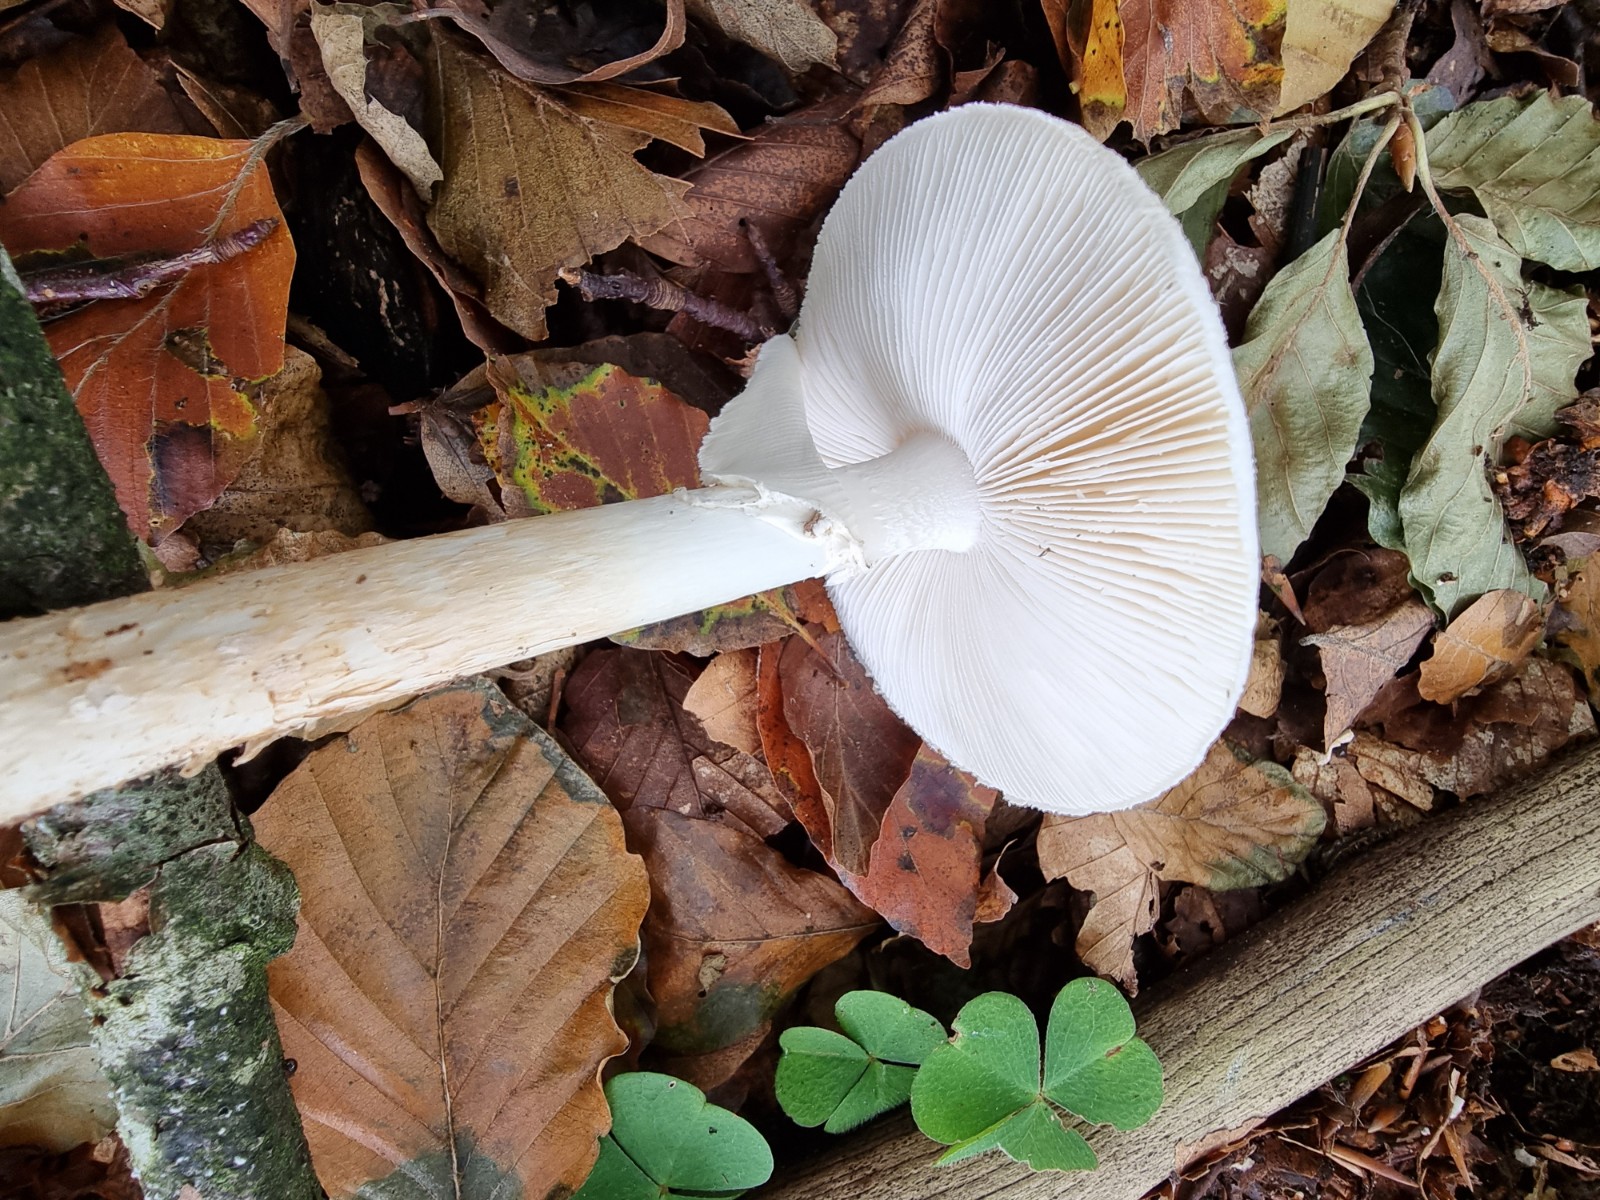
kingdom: Fungi
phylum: Basidiomycota
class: Agaricomycetes
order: Agaricales
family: Amanitaceae
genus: Amanita
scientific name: Amanita citrina
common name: kugleknoldet fluesvamp
